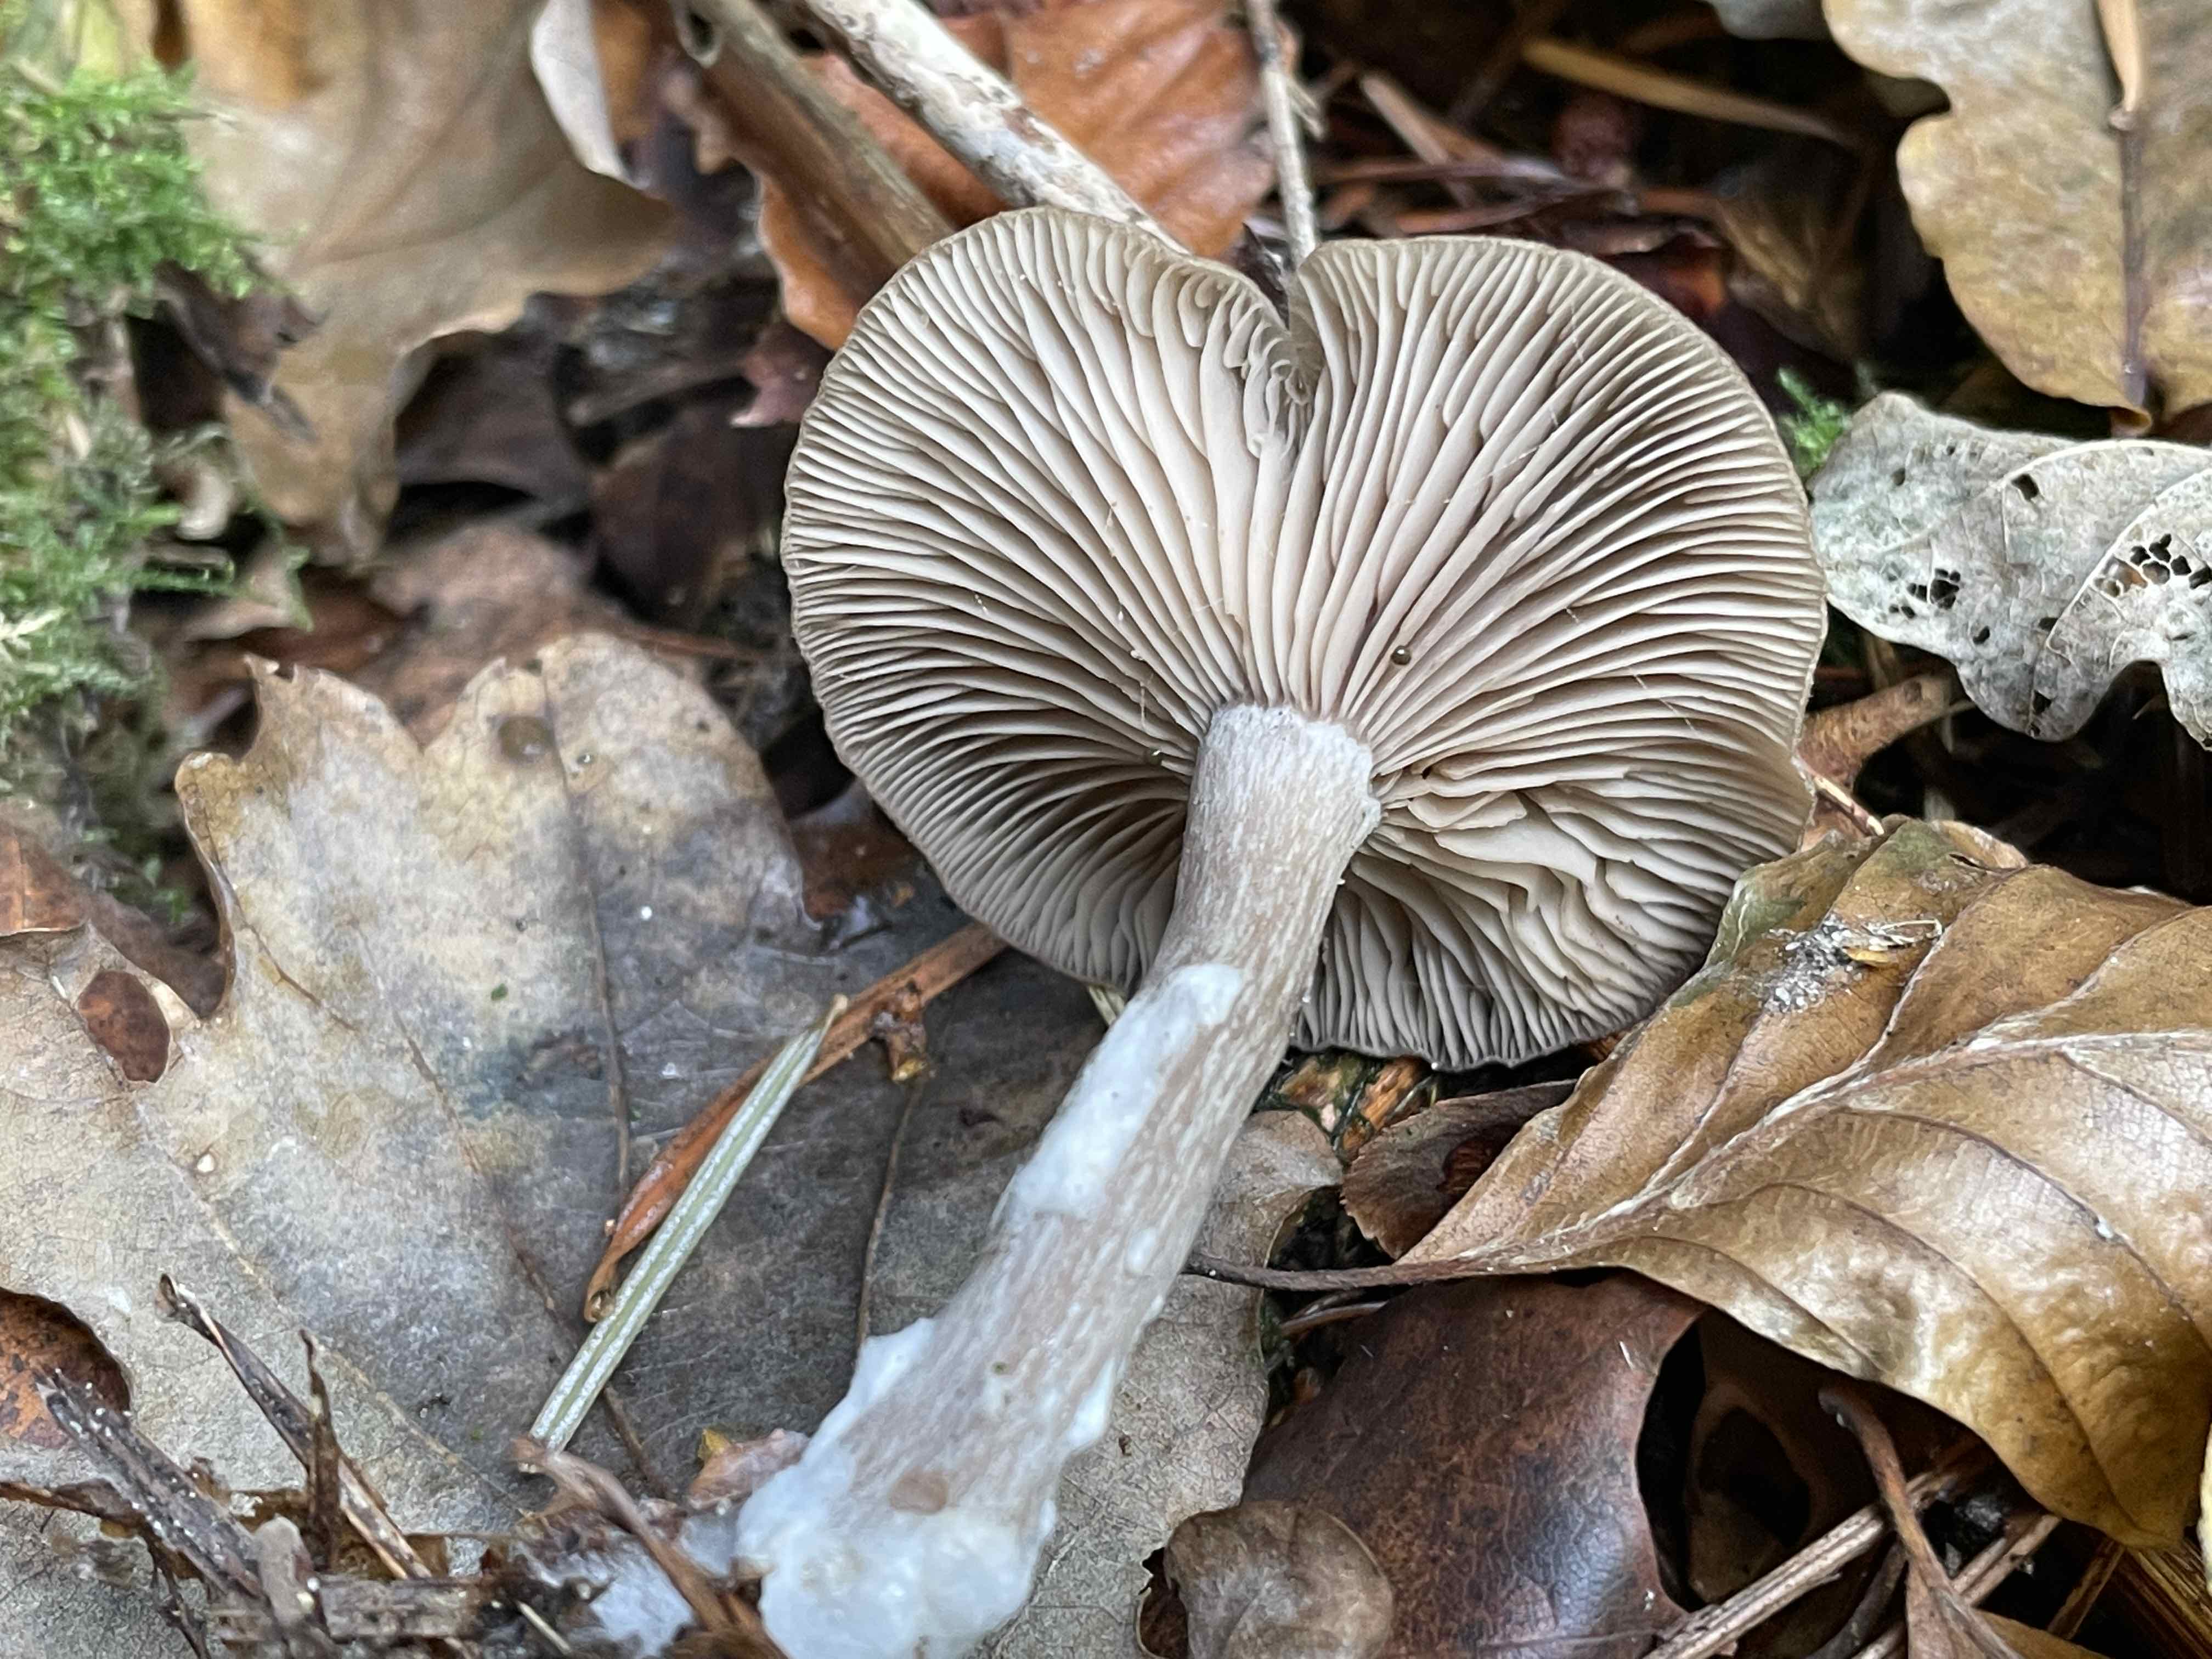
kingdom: Fungi
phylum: Basidiomycota
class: Agaricomycetes
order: Agaricales
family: Pseudoclitocybaceae
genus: Pseudoclitocybe
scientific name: Pseudoclitocybe cyathiformis
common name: almindelig bægertragthat
